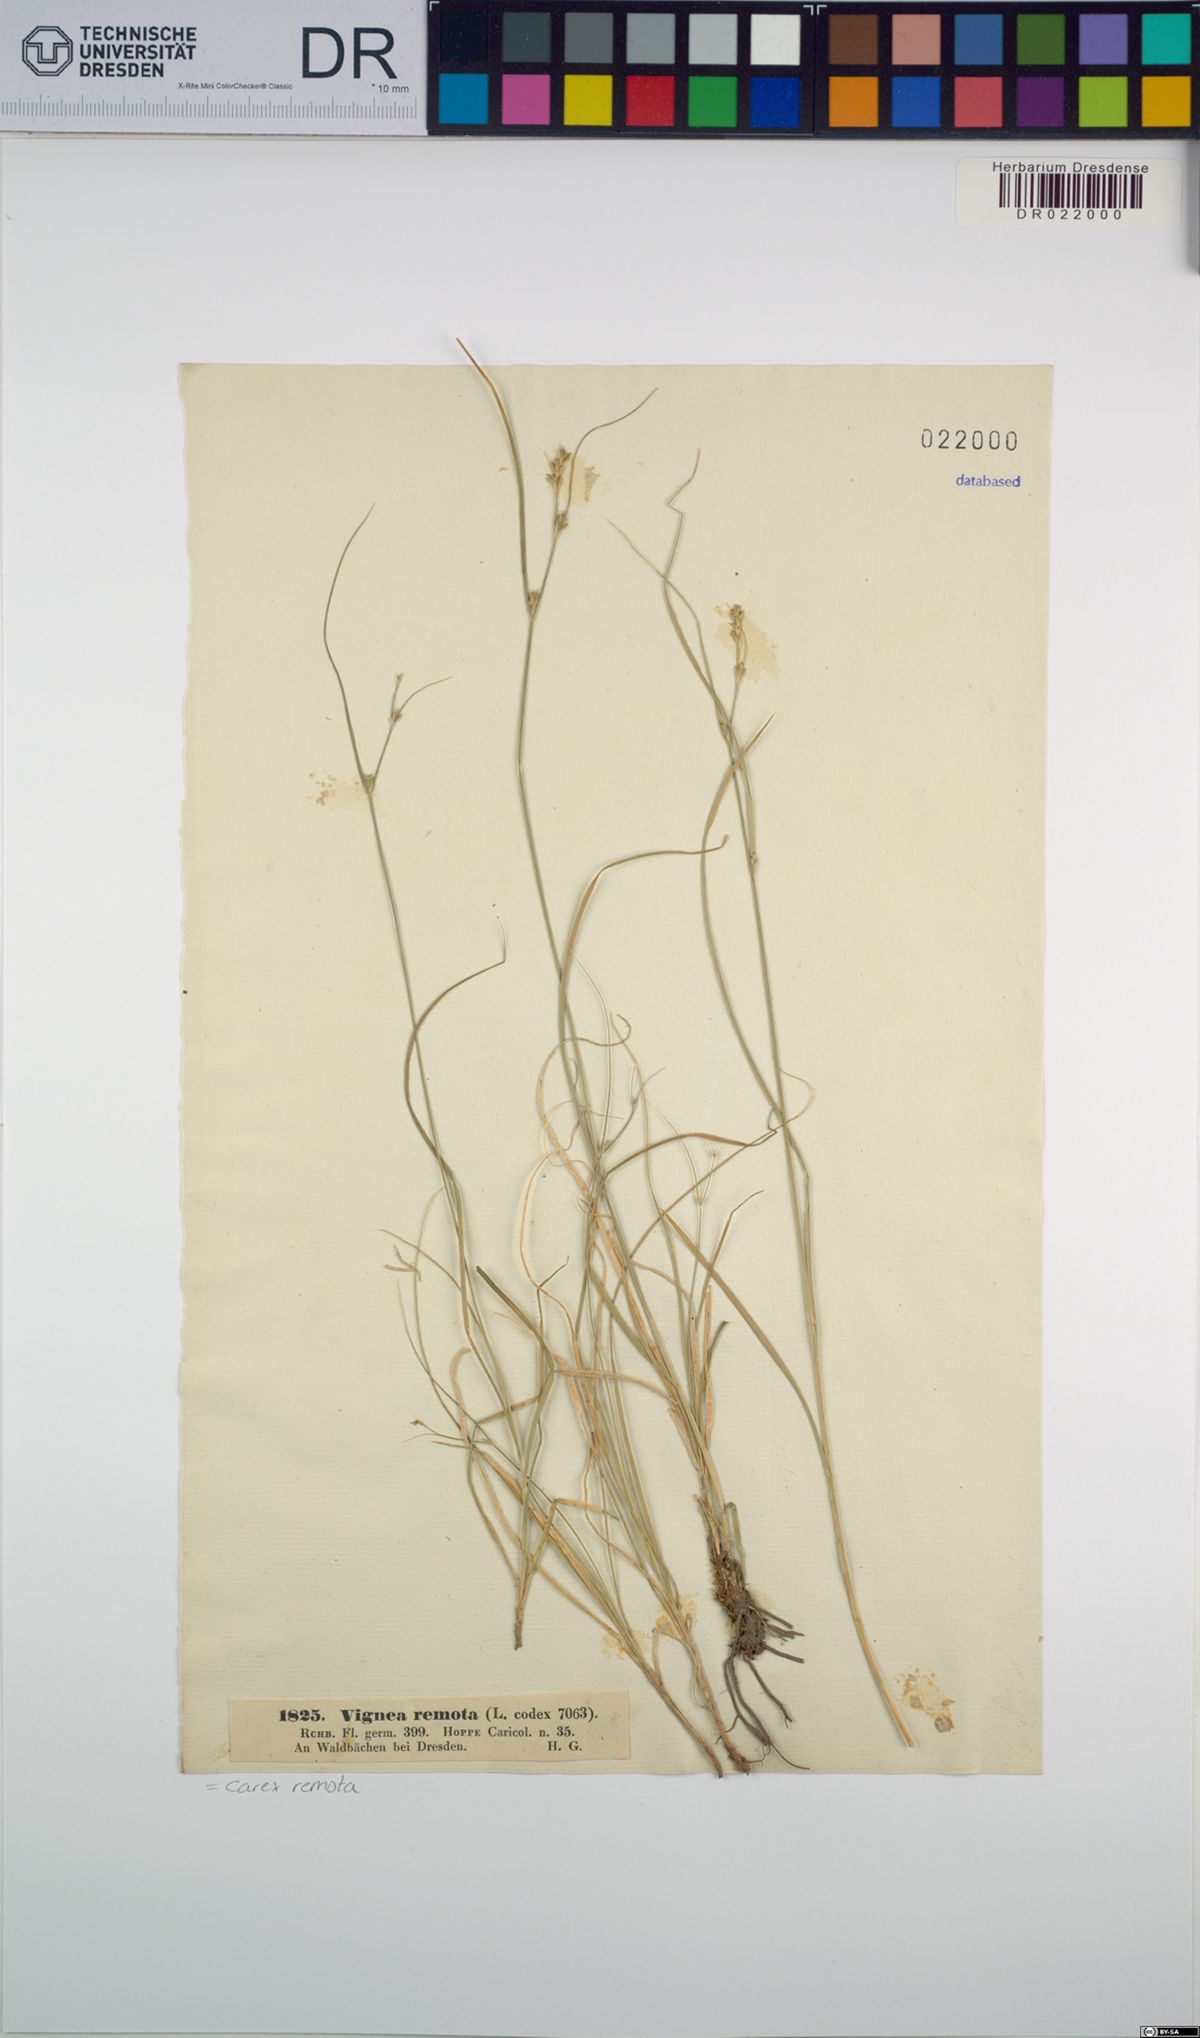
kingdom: Plantae
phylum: Tracheophyta
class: Liliopsida
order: Poales
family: Cyperaceae
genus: Carex
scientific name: Carex remota
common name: Remote sedge
